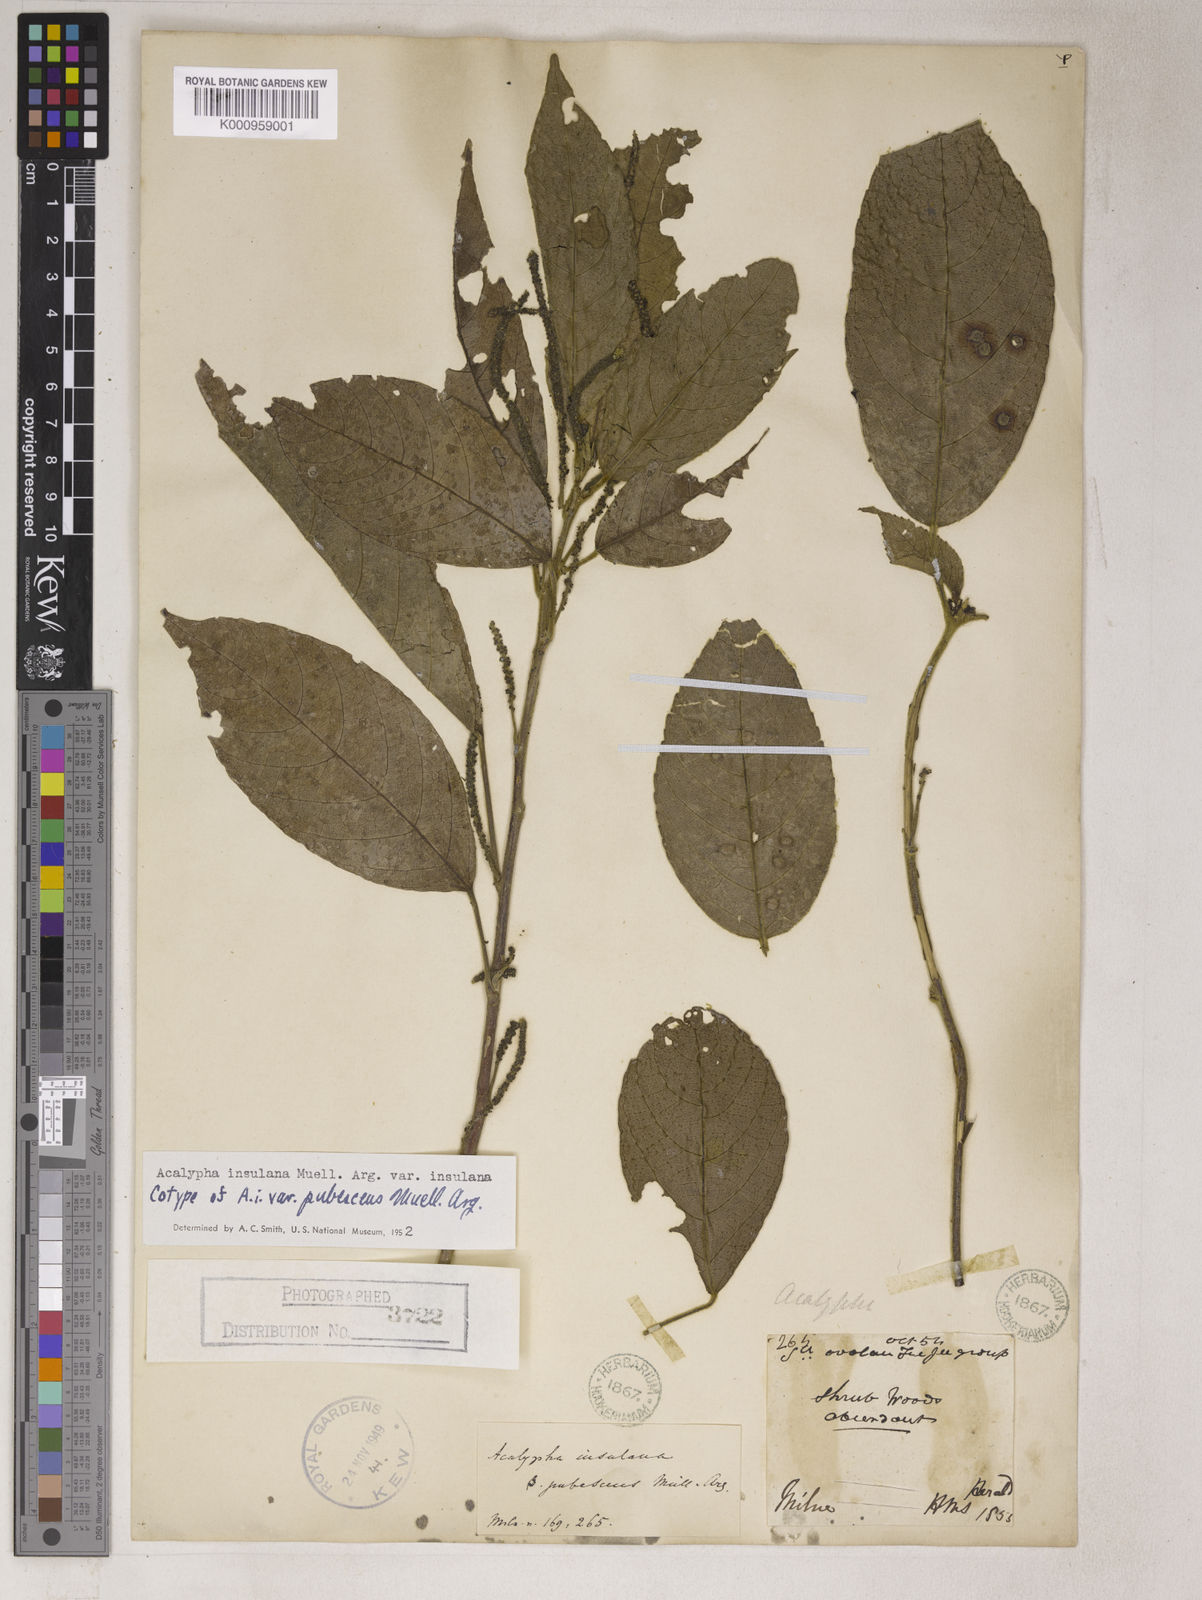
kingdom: Plantae
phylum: Tracheophyta
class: Magnoliopsida
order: Malpighiales
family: Euphorbiaceae
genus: Acalypha
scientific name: Acalypha
